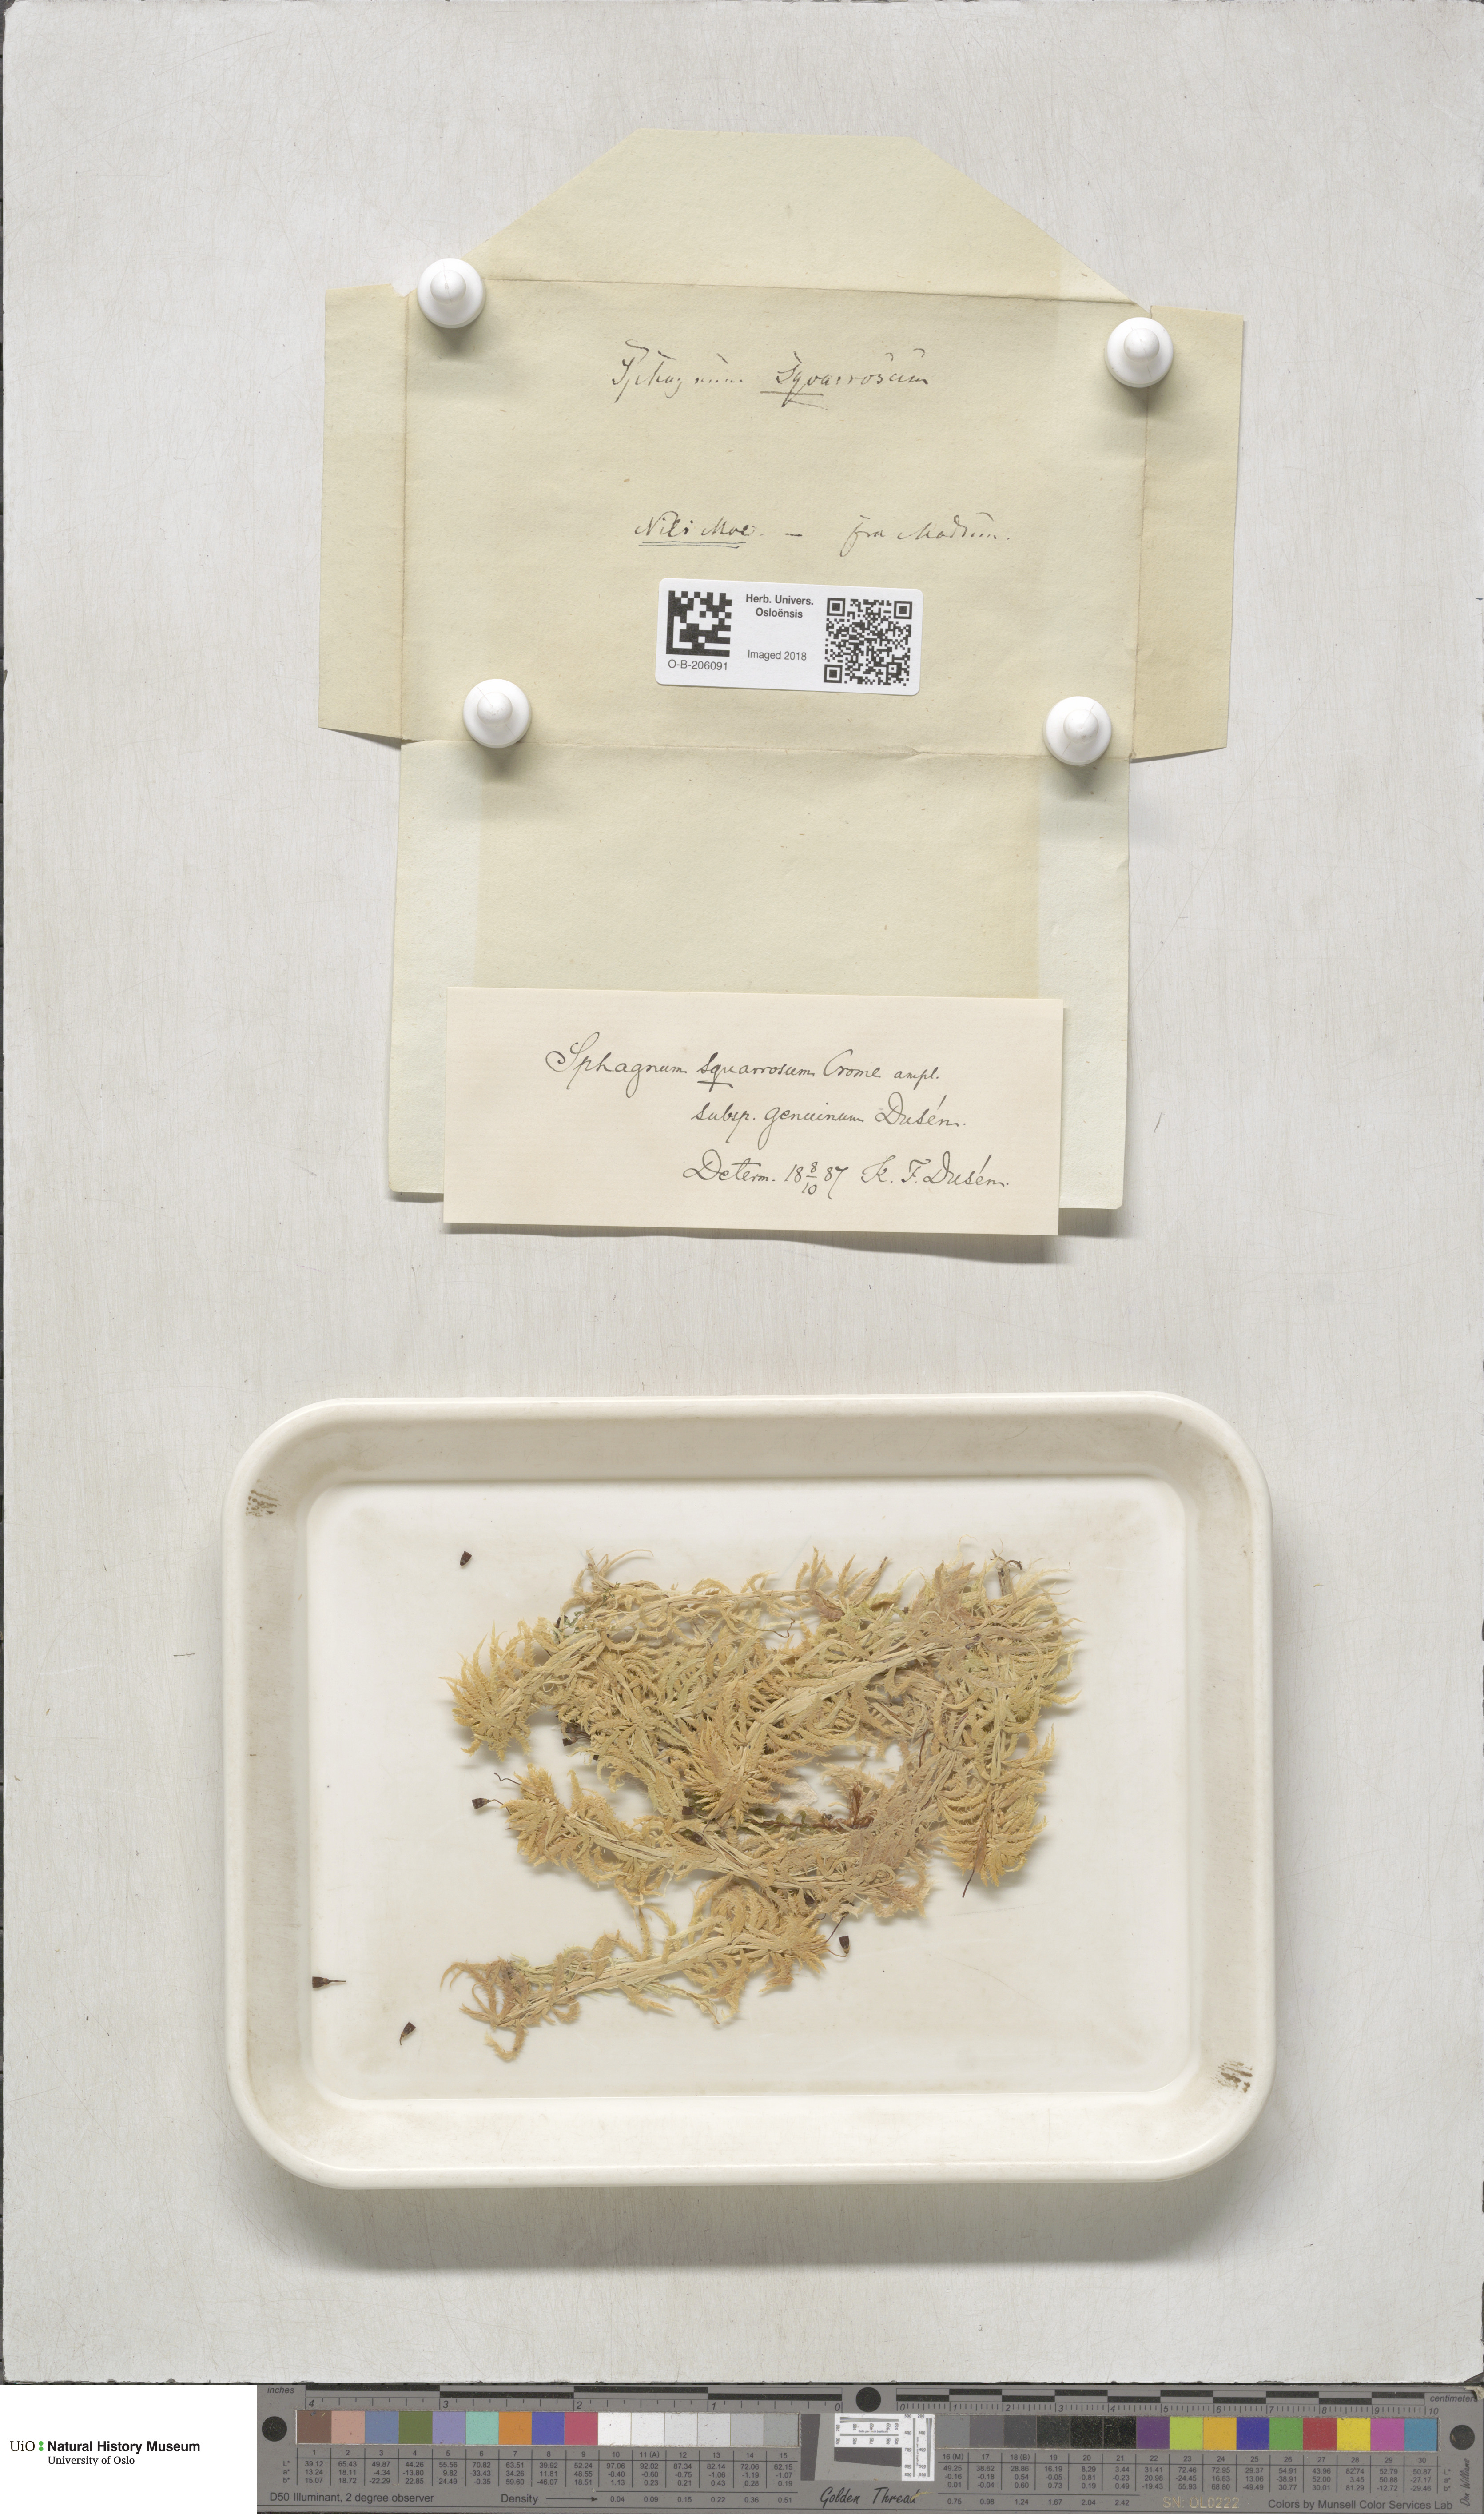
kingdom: Plantae
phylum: Bryophyta
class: Sphagnopsida
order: Sphagnales
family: Sphagnaceae
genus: Sphagnum
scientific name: Sphagnum squarrosum
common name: Shaggy peat moss
